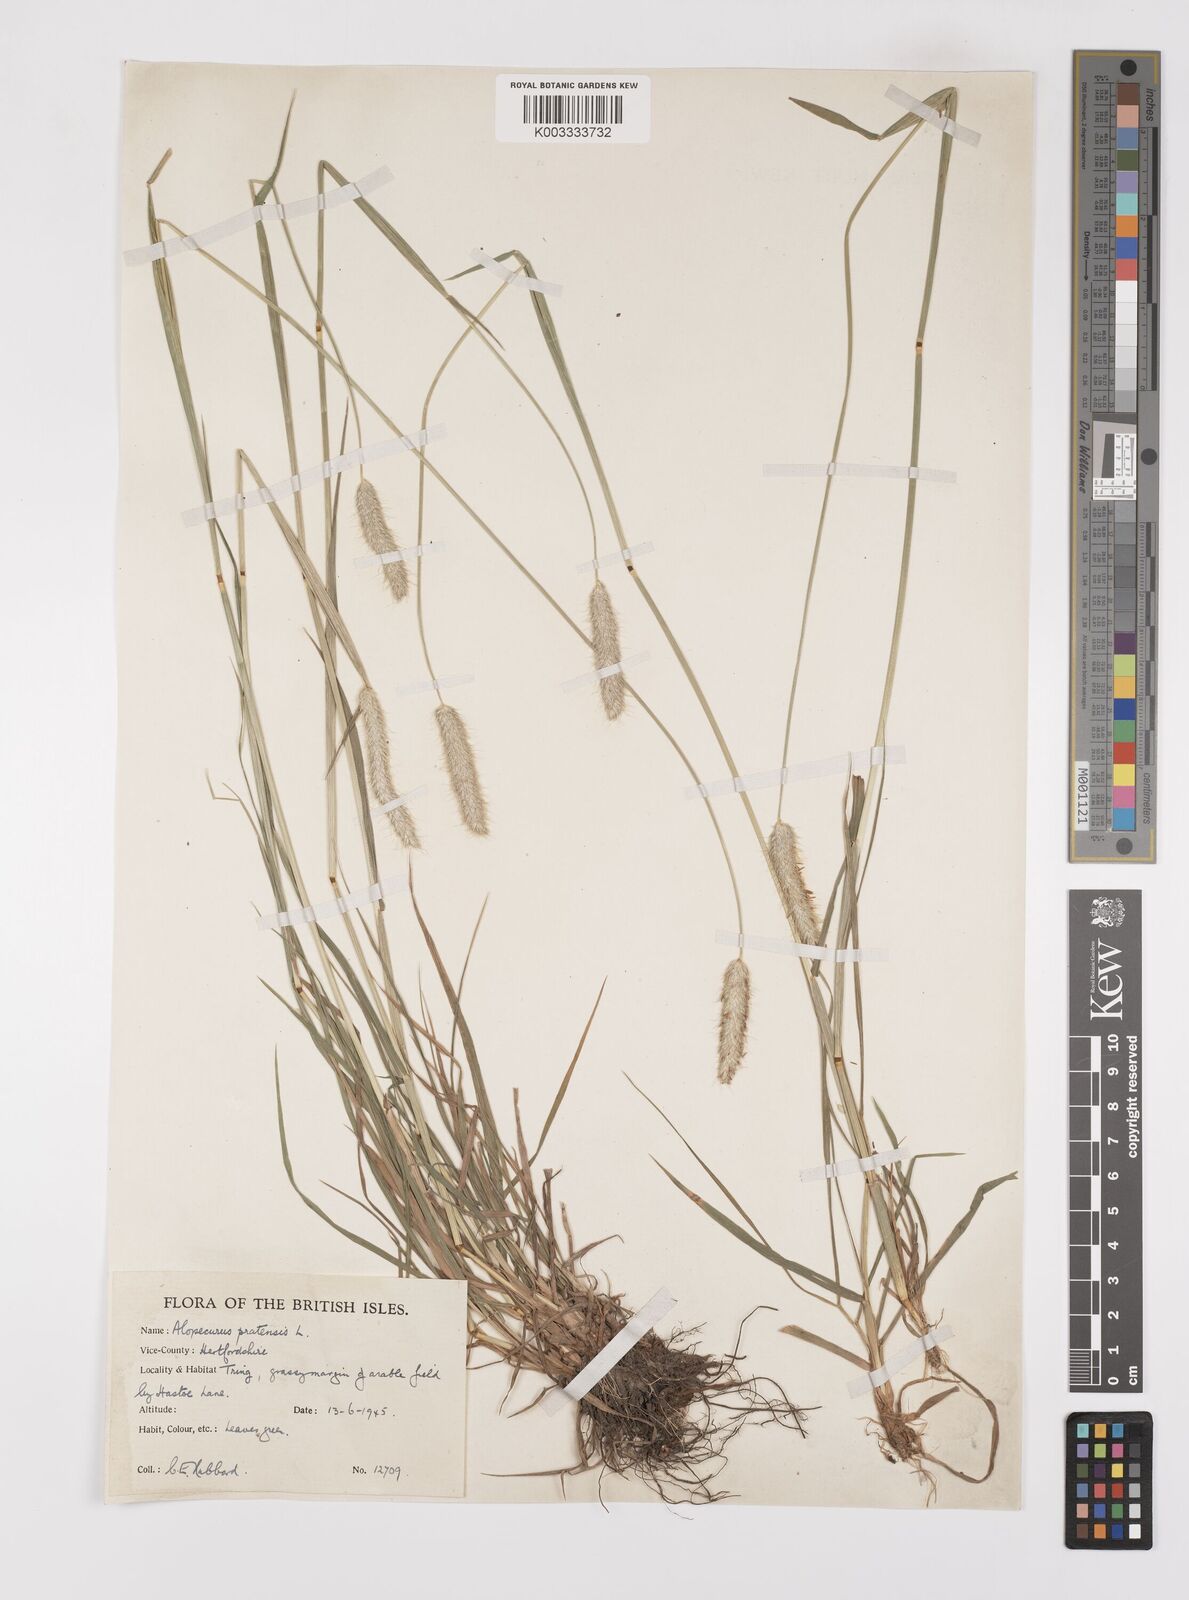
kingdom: Plantae
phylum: Tracheophyta
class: Liliopsida
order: Poales
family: Poaceae
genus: Alopecurus
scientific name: Alopecurus pratensis
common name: Meadow foxtail
